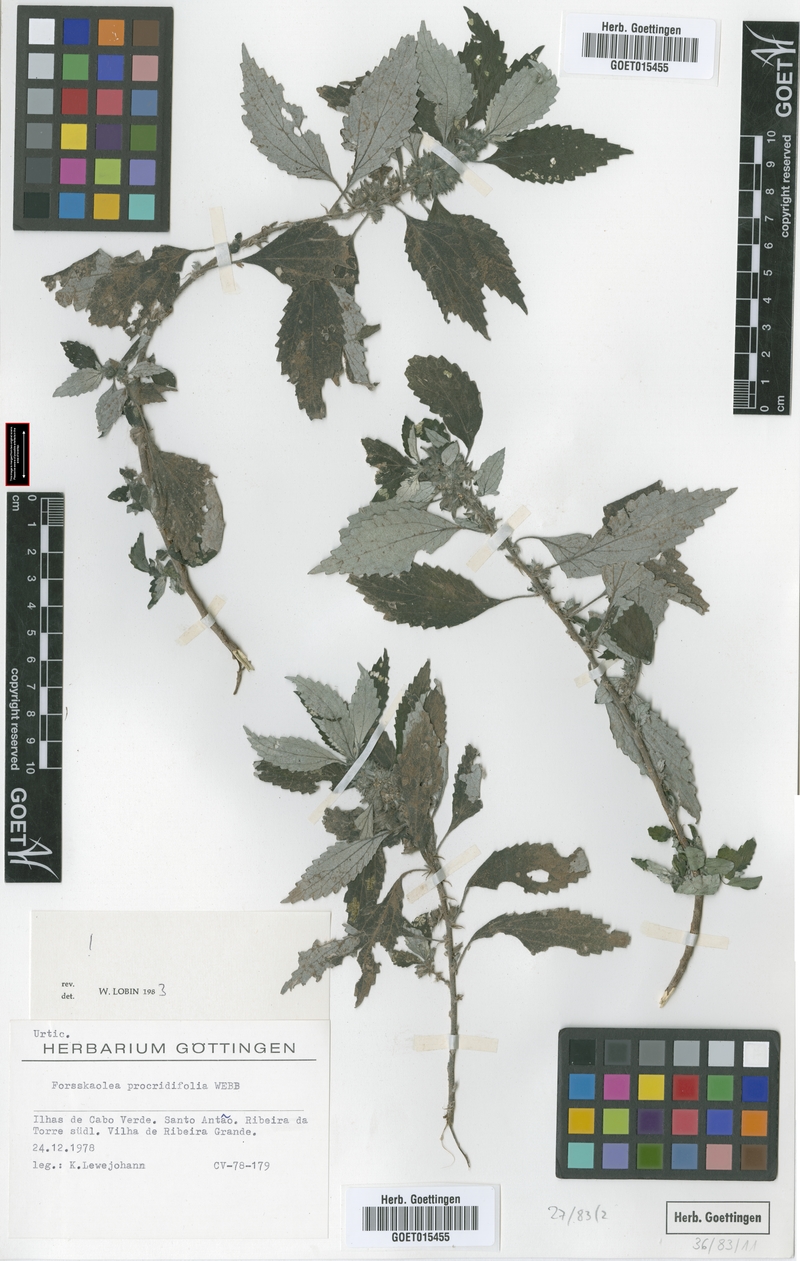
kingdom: Plantae
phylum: Tracheophyta
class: Magnoliopsida
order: Rosales
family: Urticaceae
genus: Forsskaolea
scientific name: Forsskaolea procridifolia
